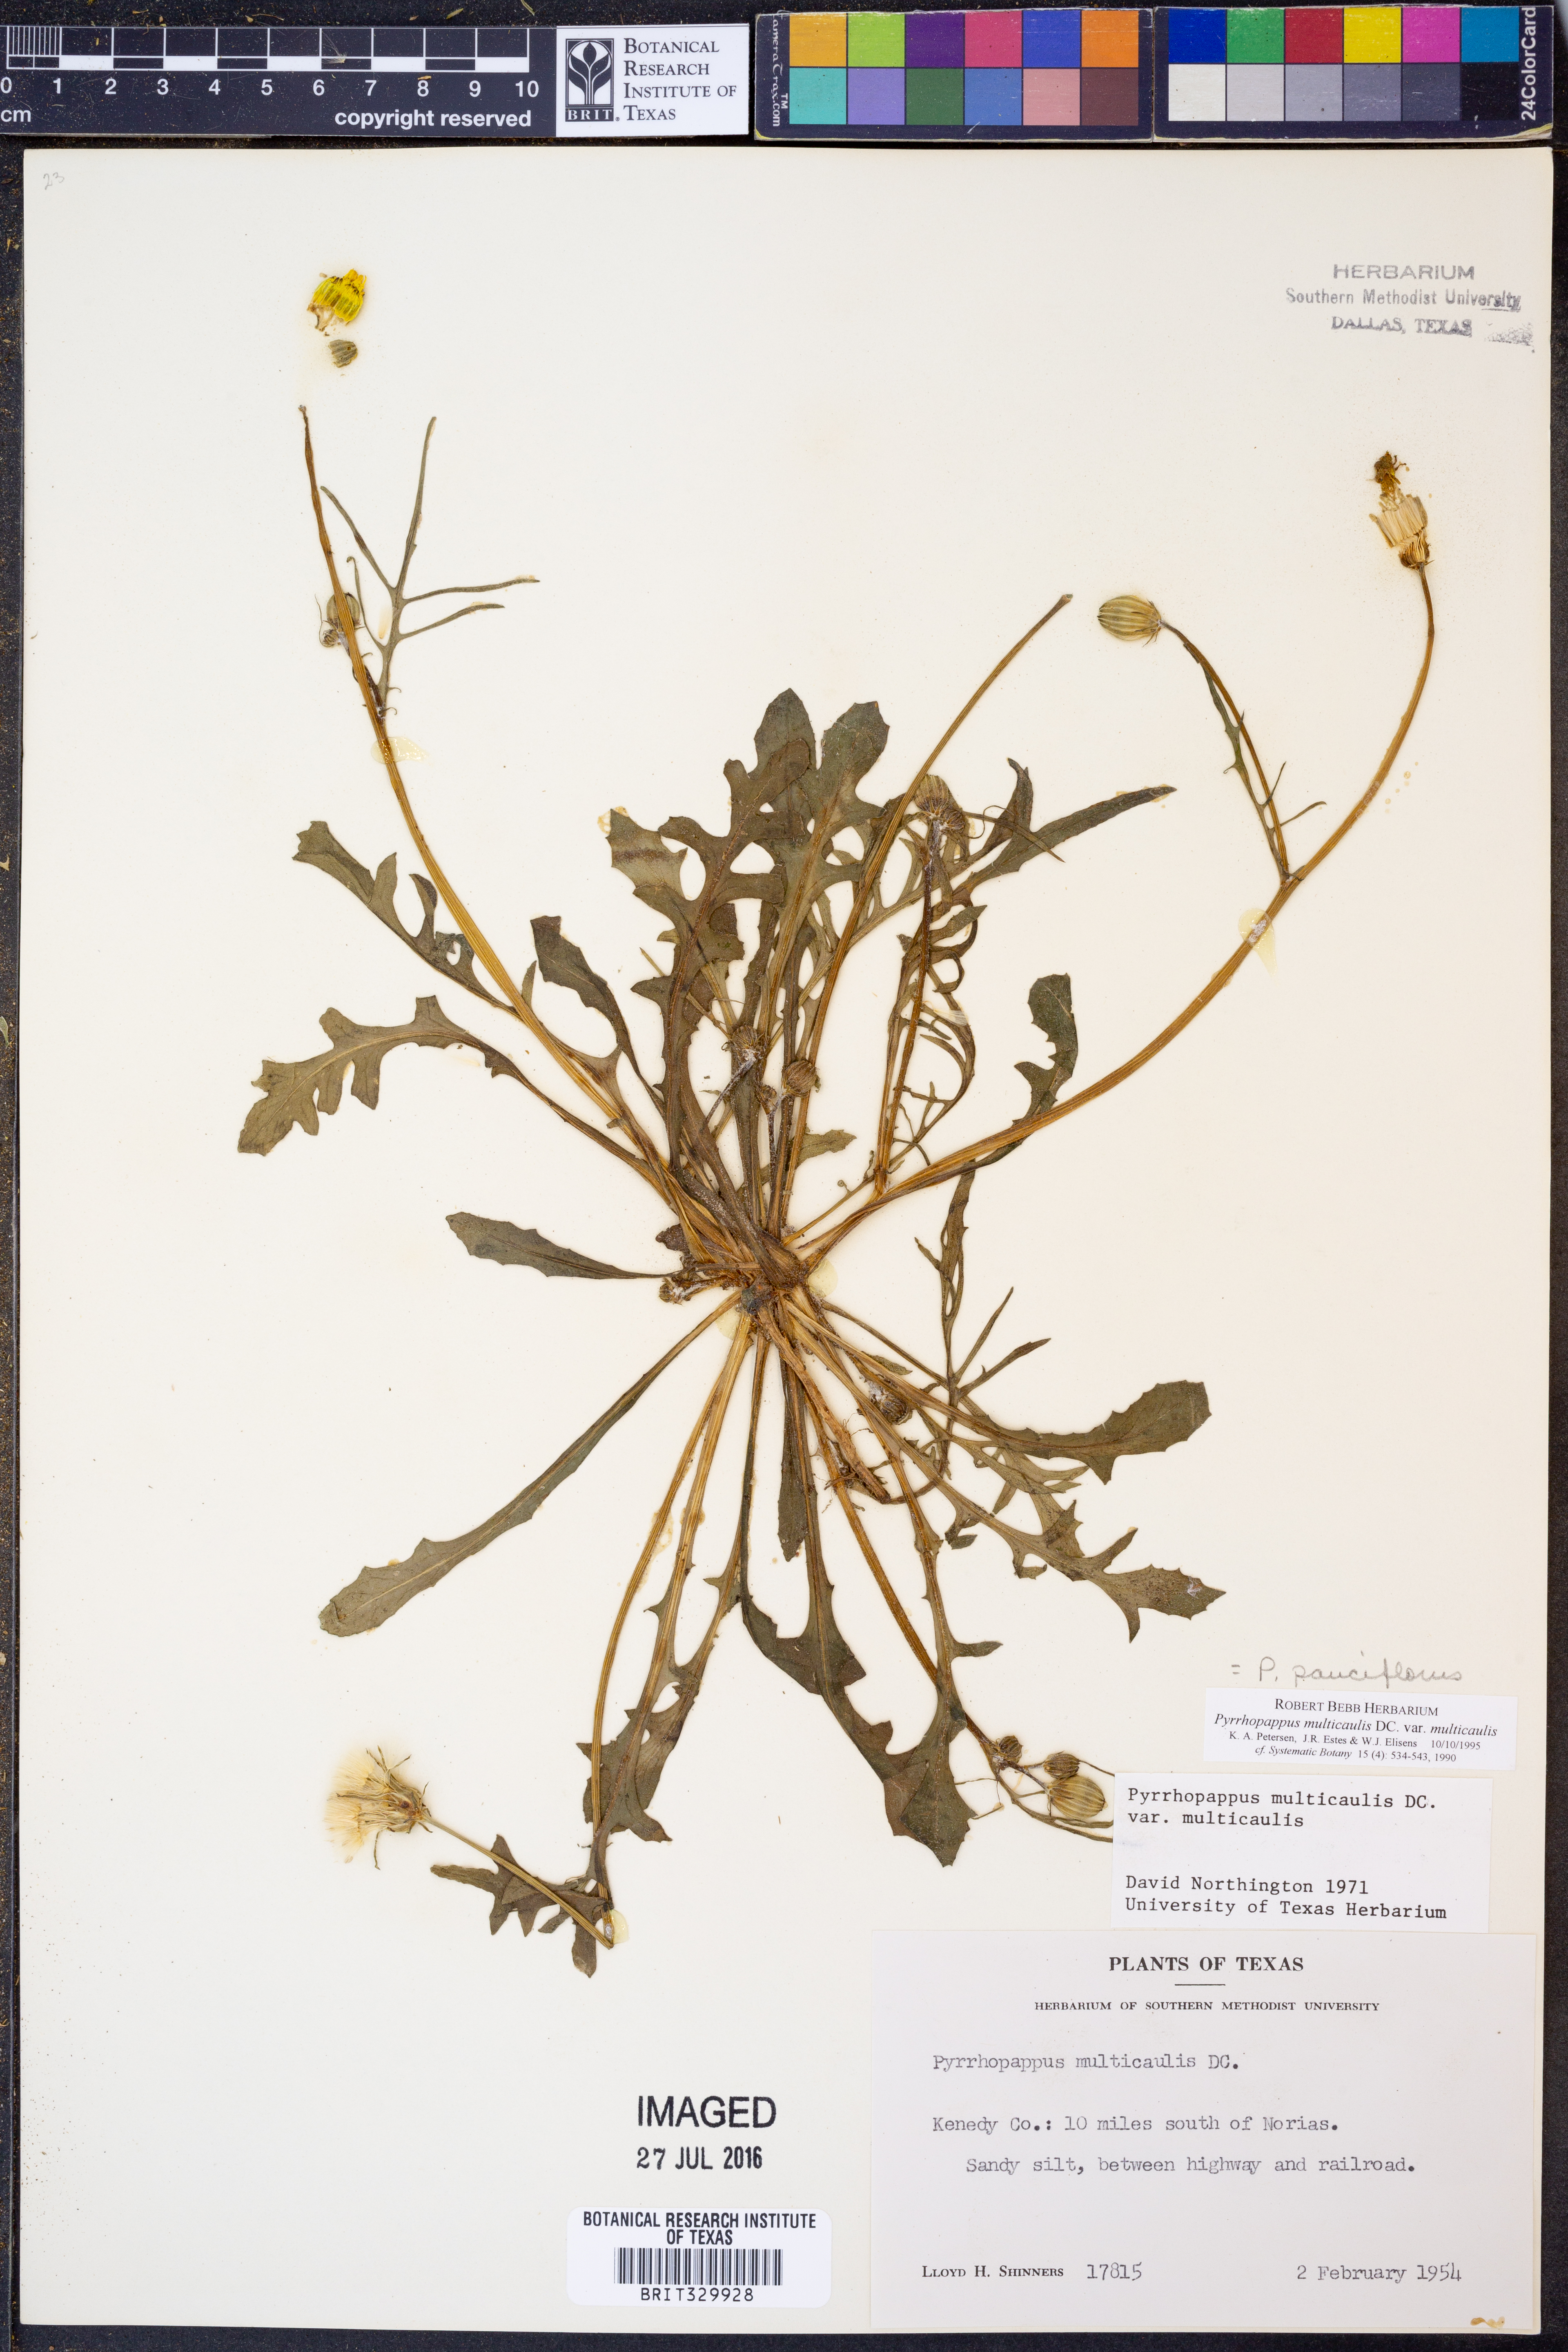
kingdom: Plantae
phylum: Tracheophyta
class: Magnoliopsida
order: Asterales
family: Asteraceae
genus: Pyrrhopappus
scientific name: Pyrrhopappus pauciflorus
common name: Texas false dandelion
